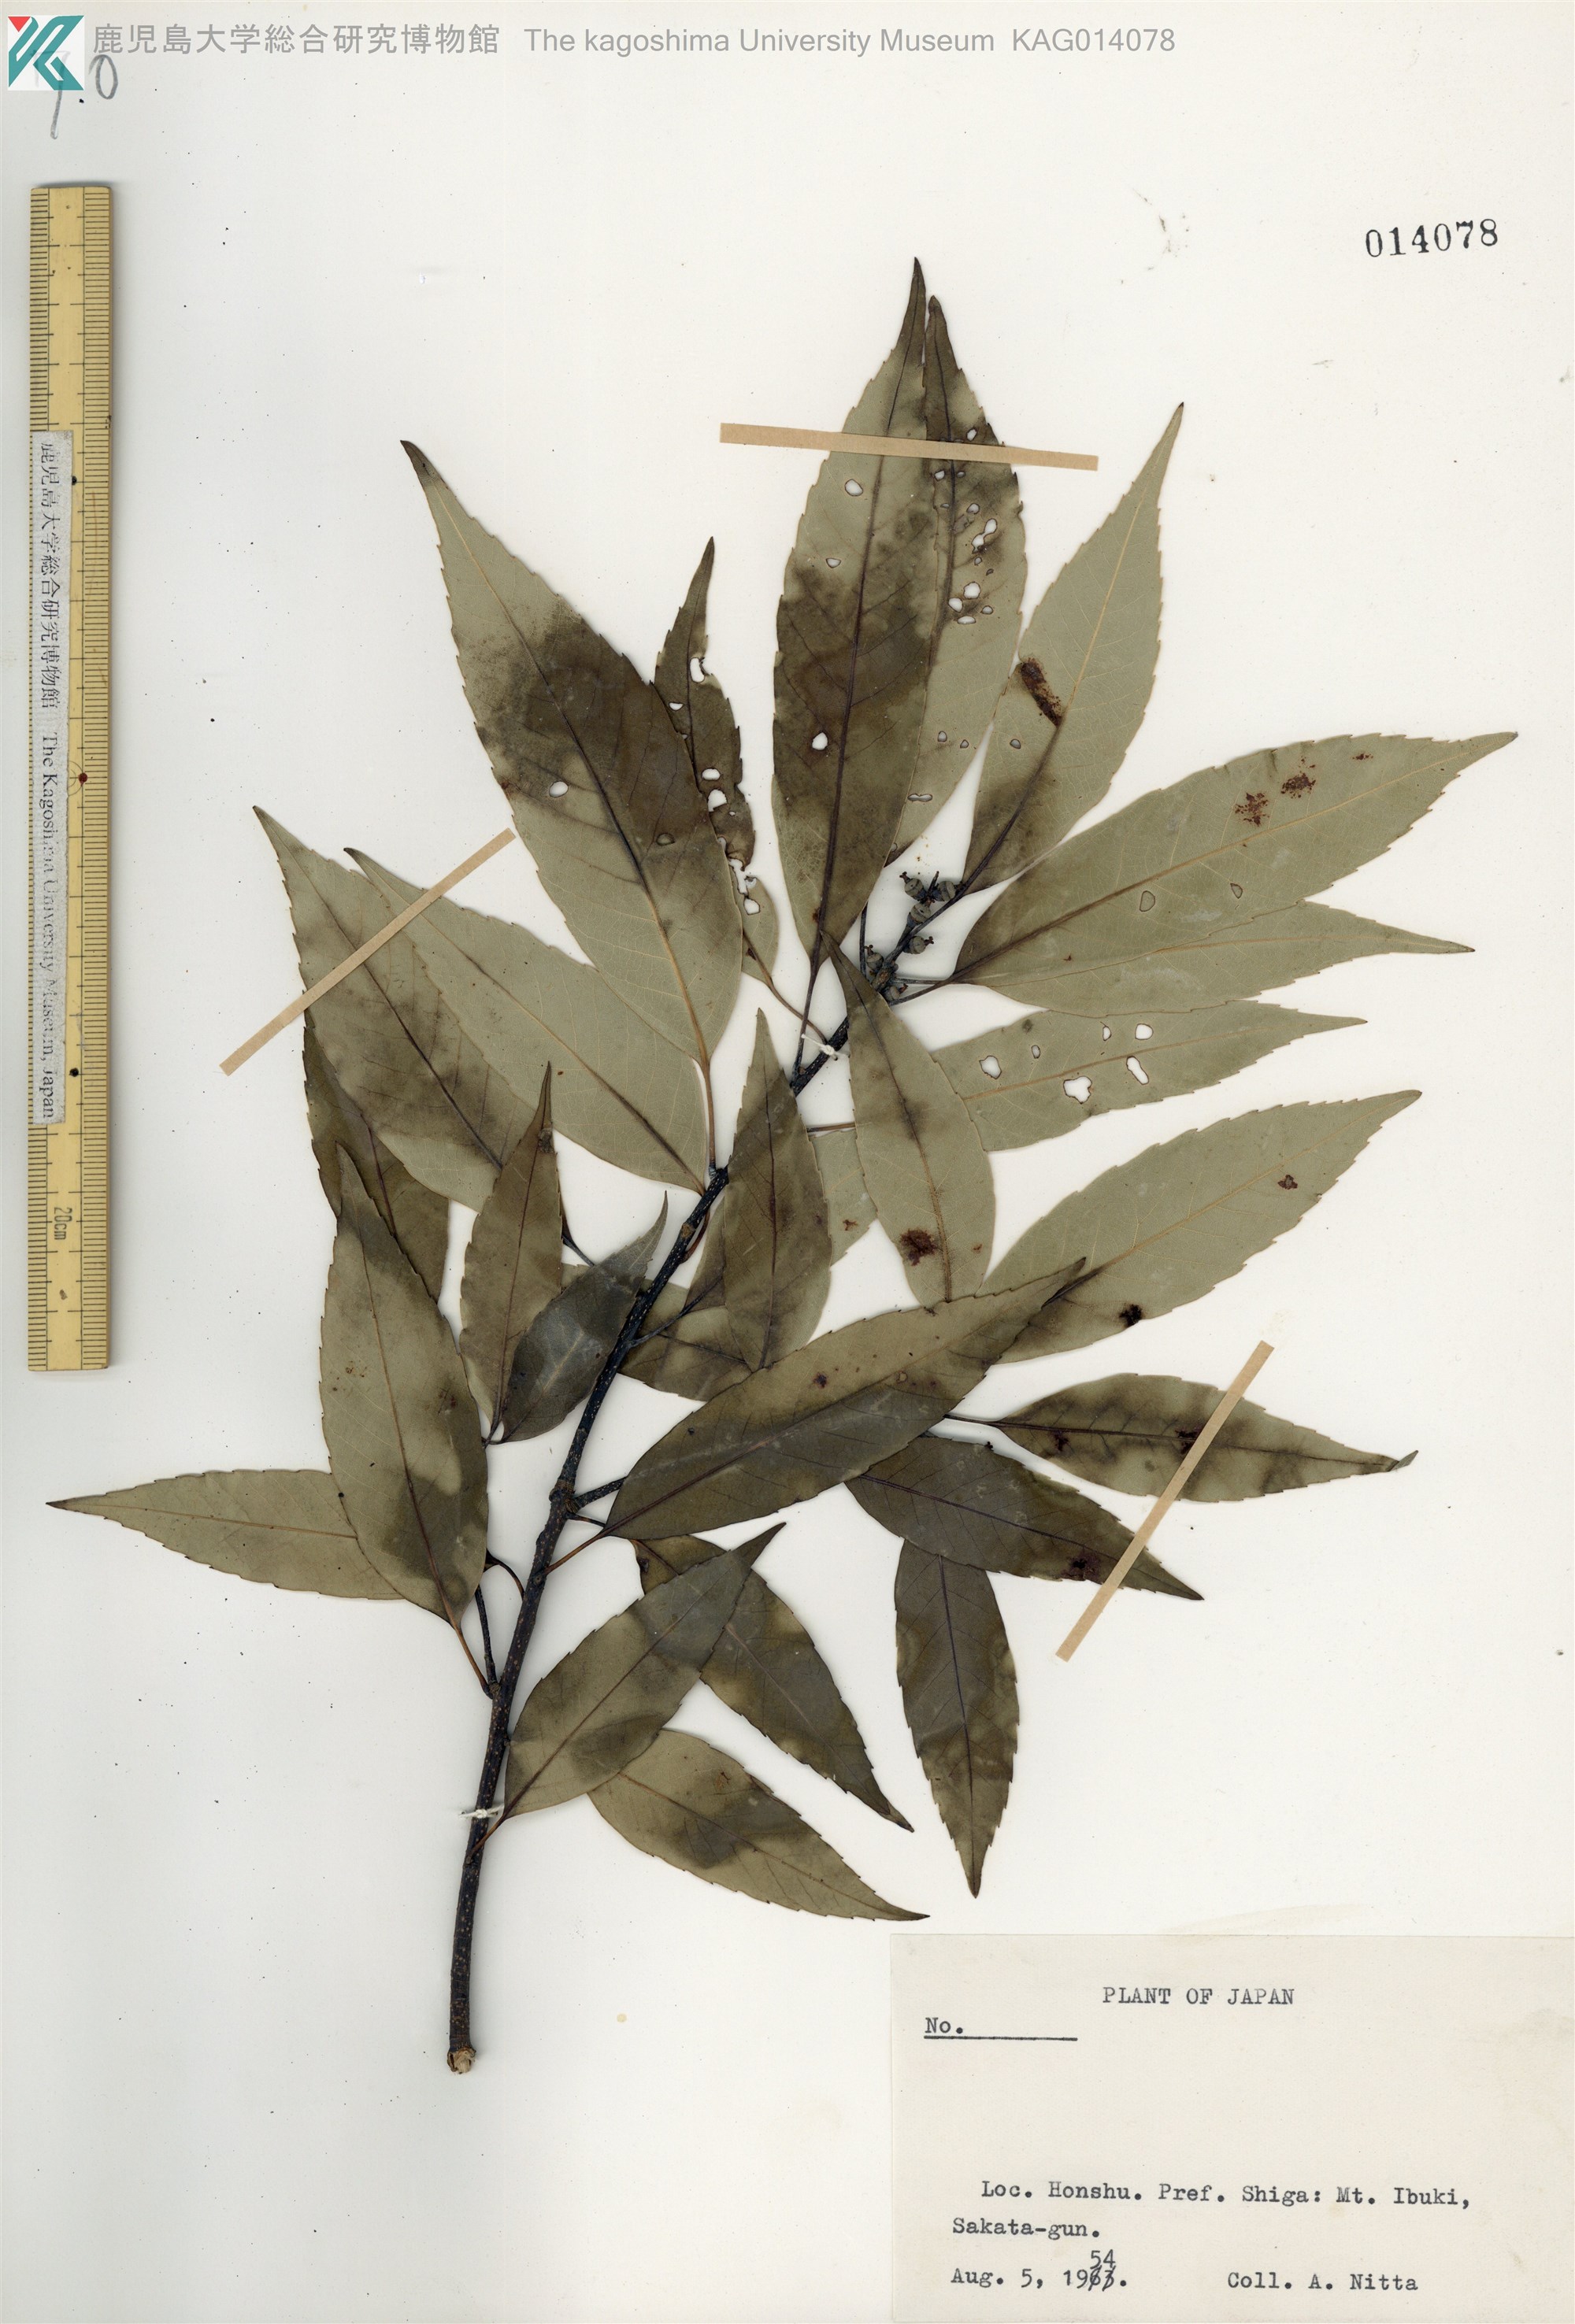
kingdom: Plantae
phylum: Tracheophyta
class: Magnoliopsida
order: Fagales
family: Fagaceae
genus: Quercus
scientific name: Quercus myrsinaefolia
